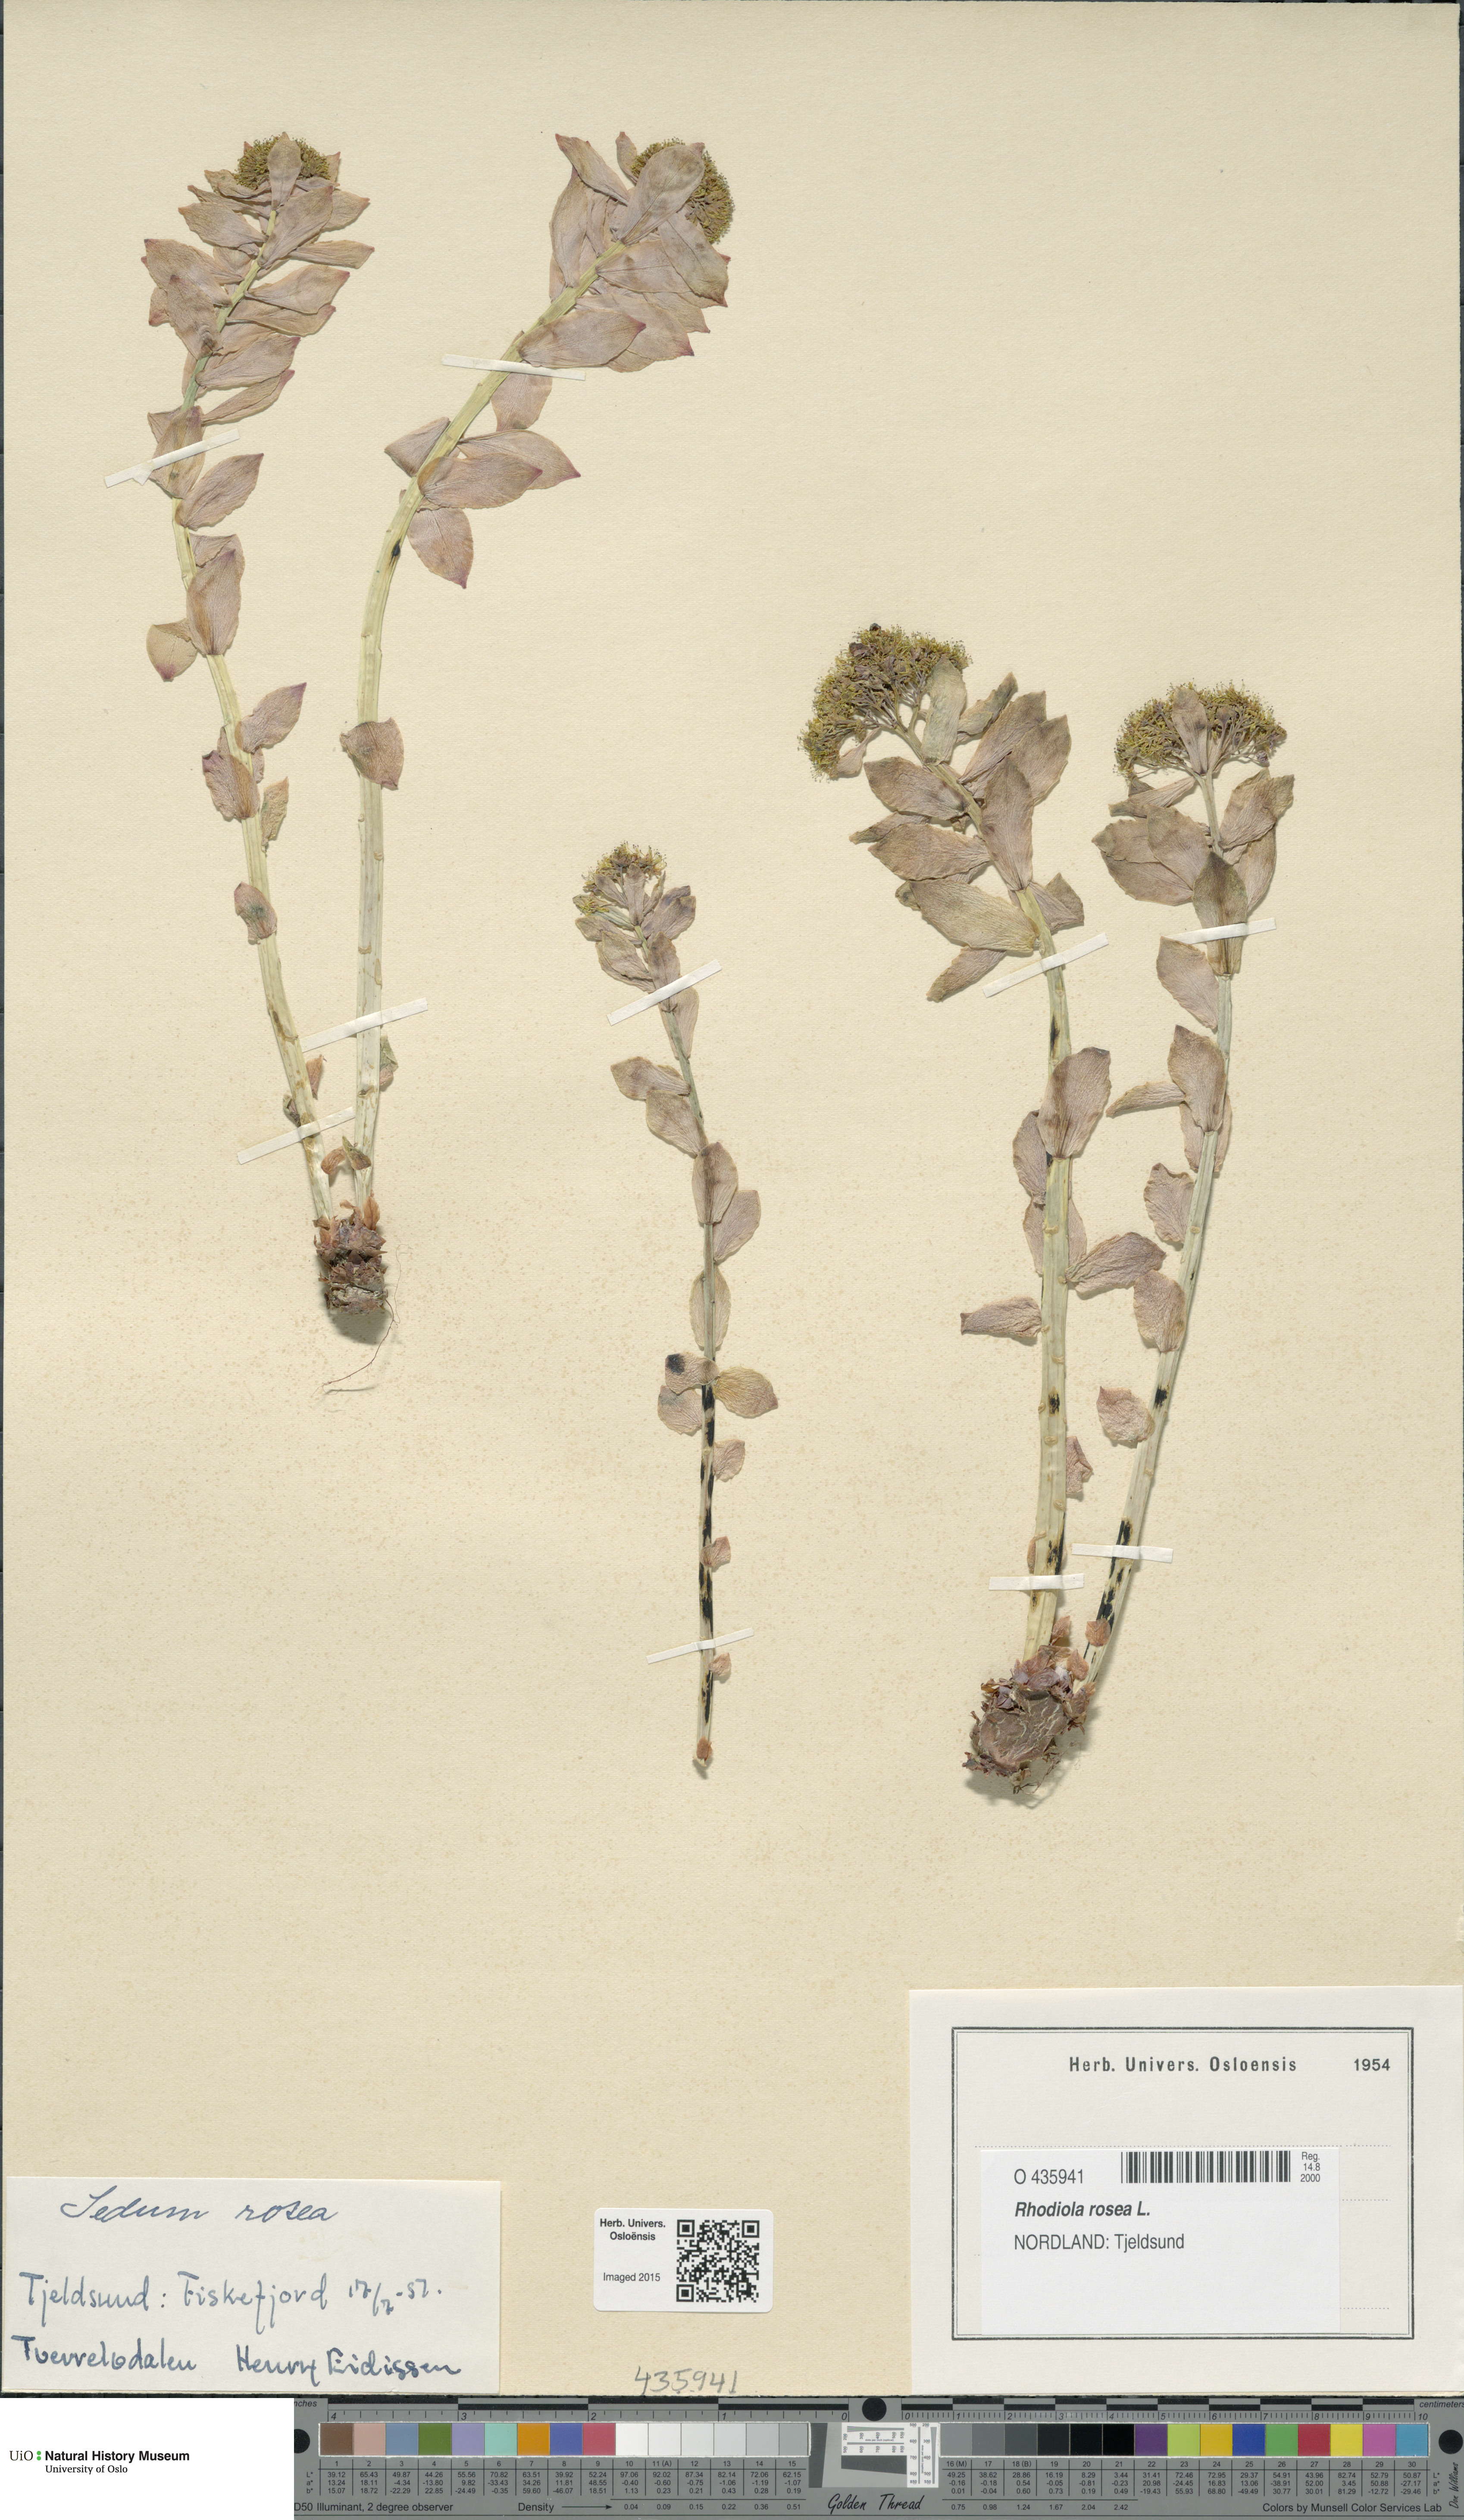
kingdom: Plantae
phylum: Tracheophyta
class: Magnoliopsida
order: Saxifragales
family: Crassulaceae
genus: Rhodiola
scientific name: Rhodiola rosea
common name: Roseroot
